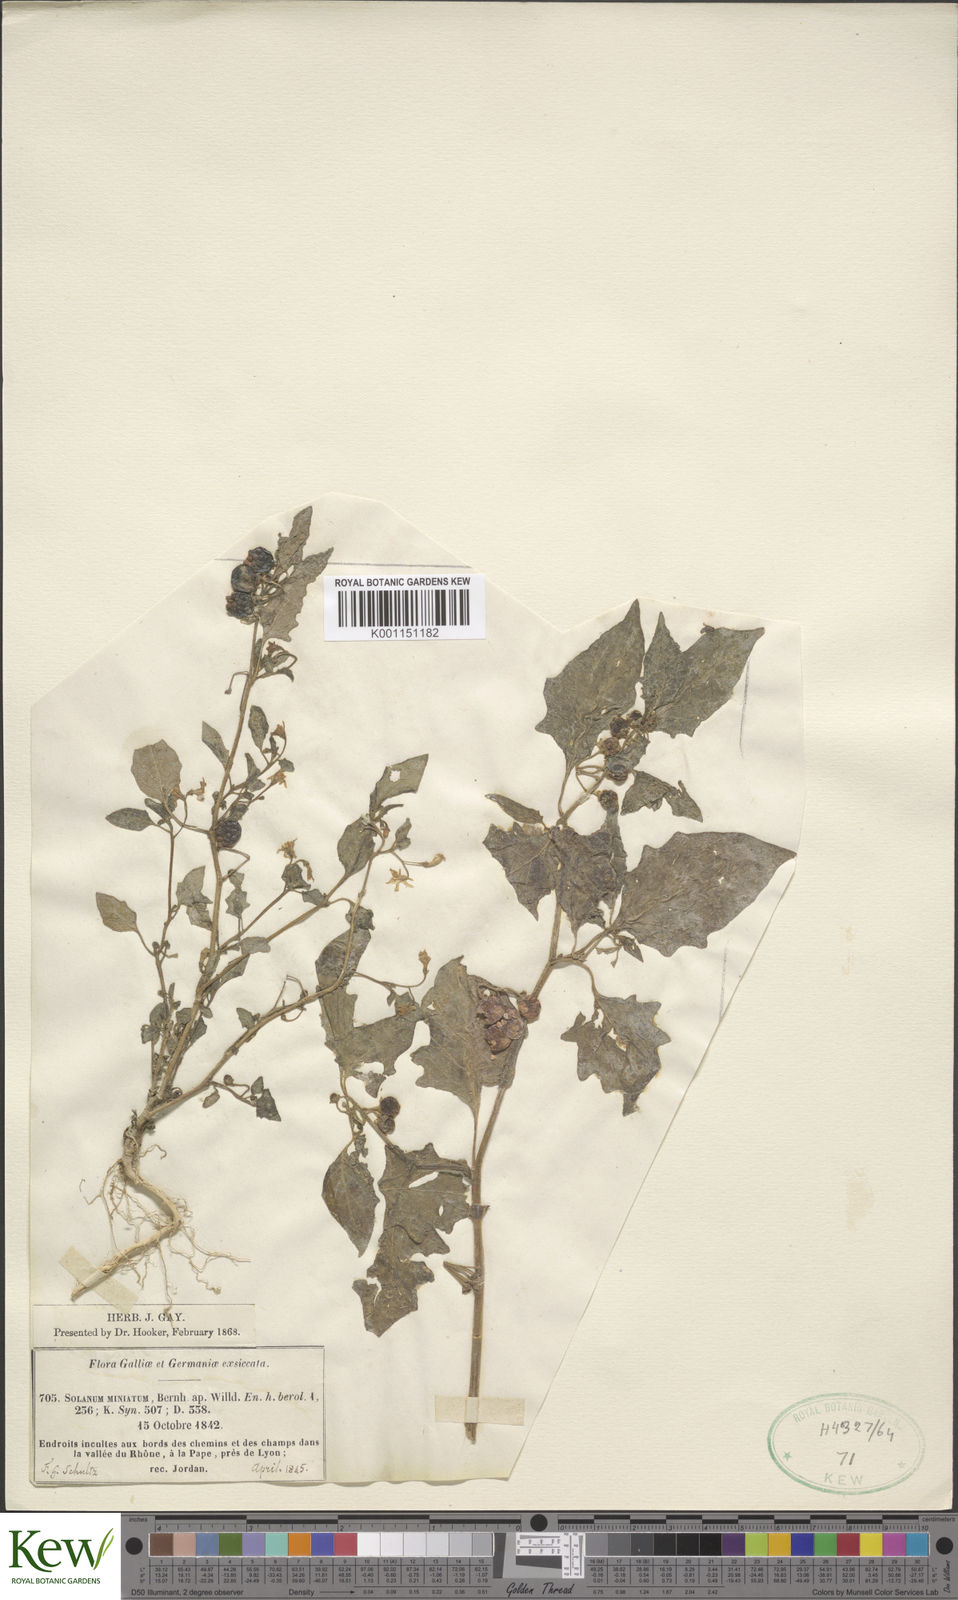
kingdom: Plantae
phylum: Tracheophyta
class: Magnoliopsida
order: Solanales
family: Solanaceae
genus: Solanum
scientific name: Solanum alatum
